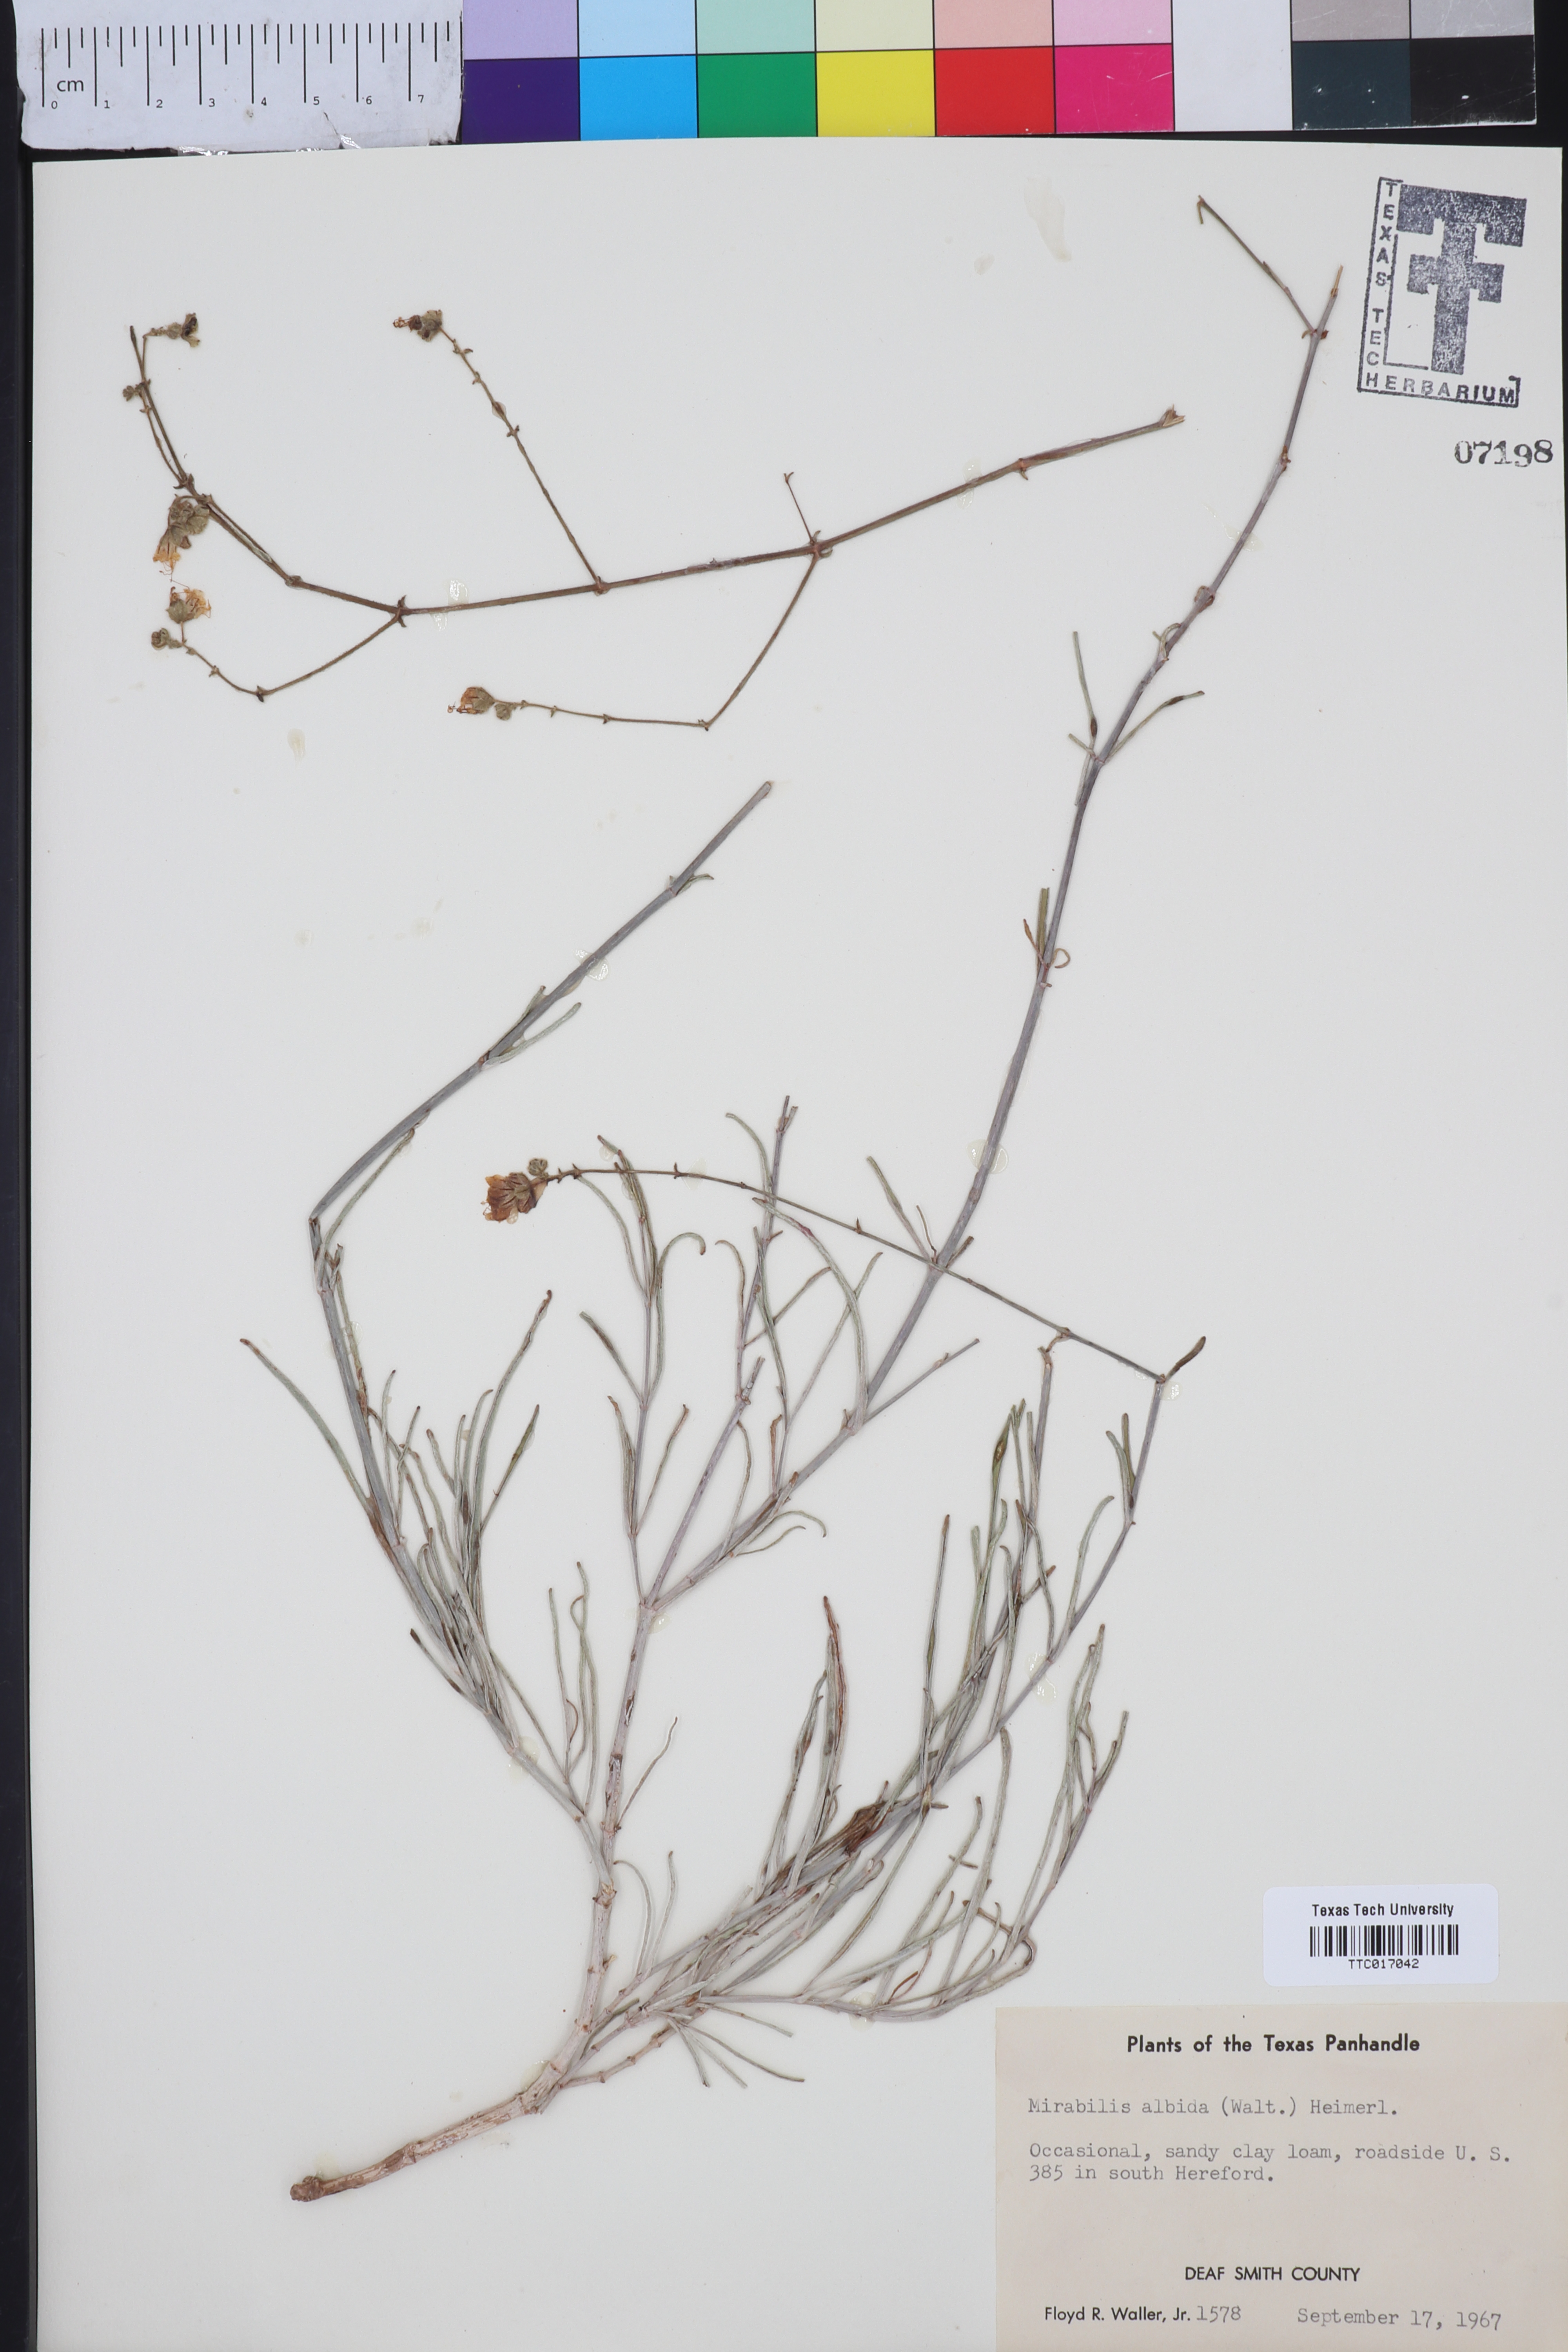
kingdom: Plantae
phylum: Tracheophyta
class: Magnoliopsida
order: Caryophyllales
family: Nyctaginaceae
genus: Mirabilis
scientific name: Mirabilis albida
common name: Hairy four-o'clock
